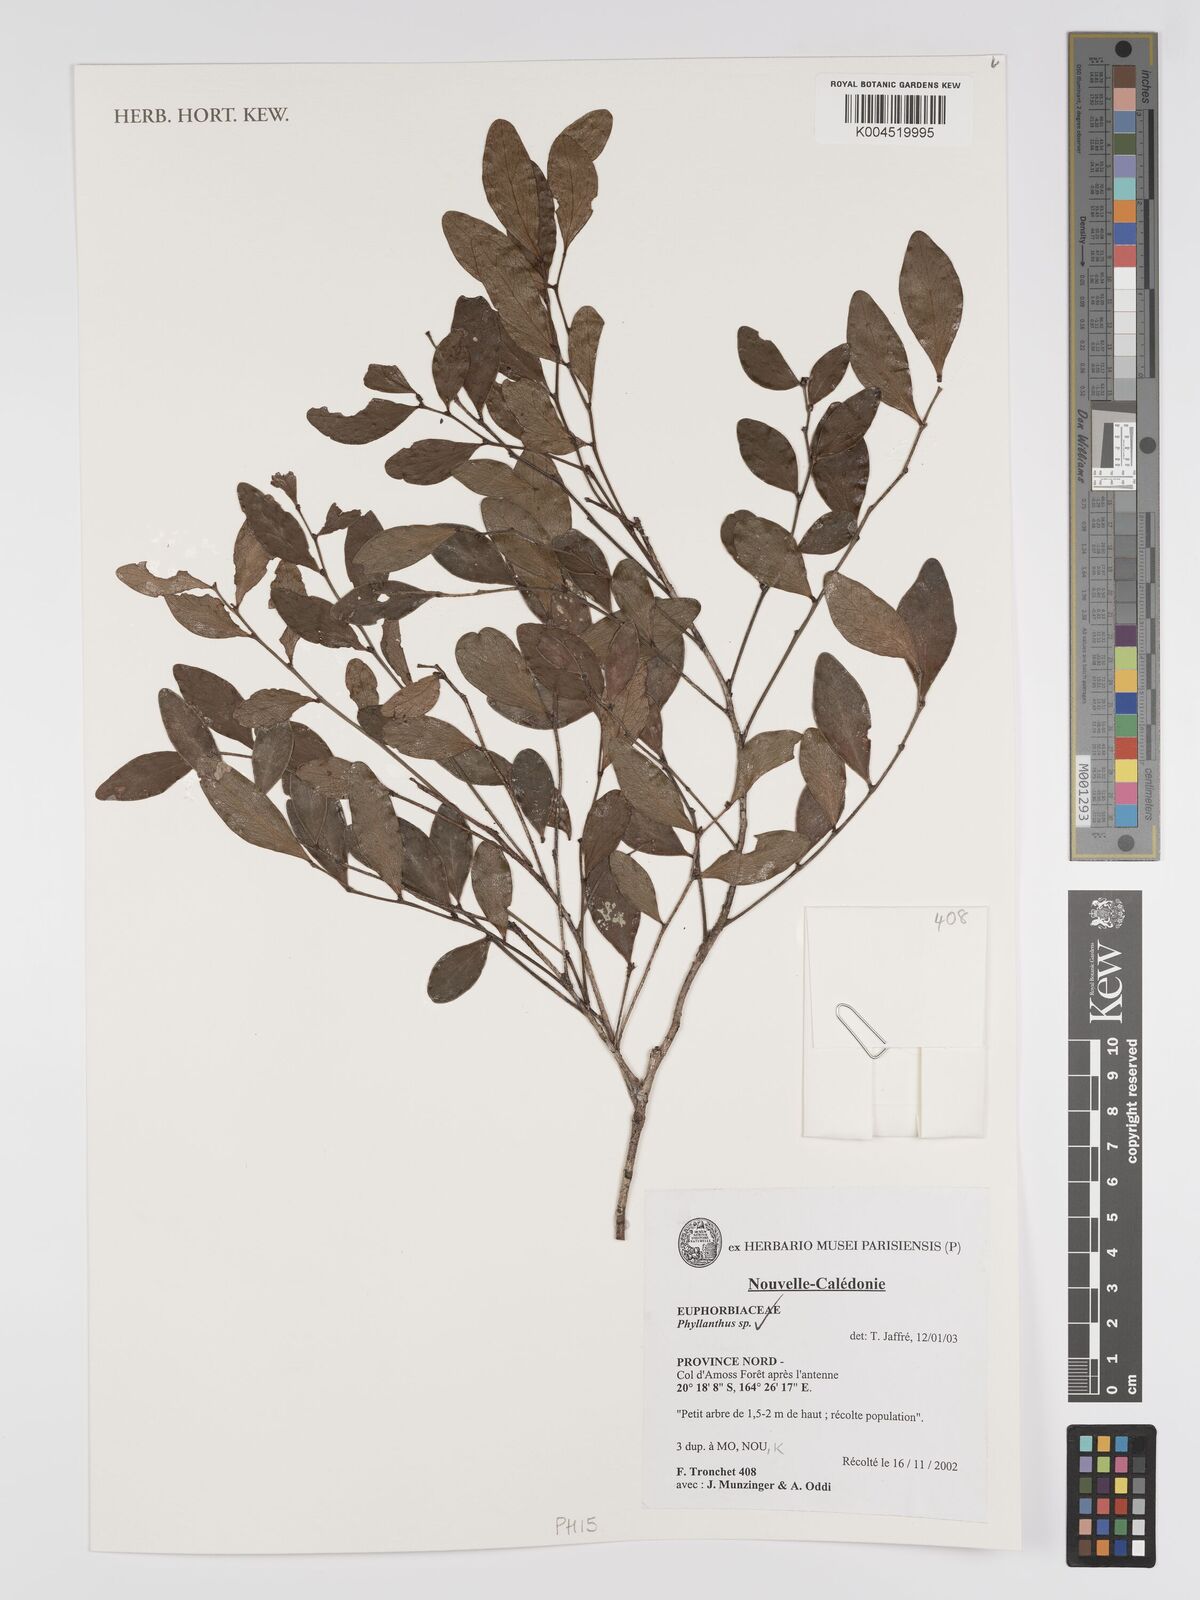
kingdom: Plantae
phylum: Tracheophyta
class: Magnoliopsida
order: Malpighiales
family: Phyllanthaceae
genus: Phyllanthus
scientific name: Phyllanthus
